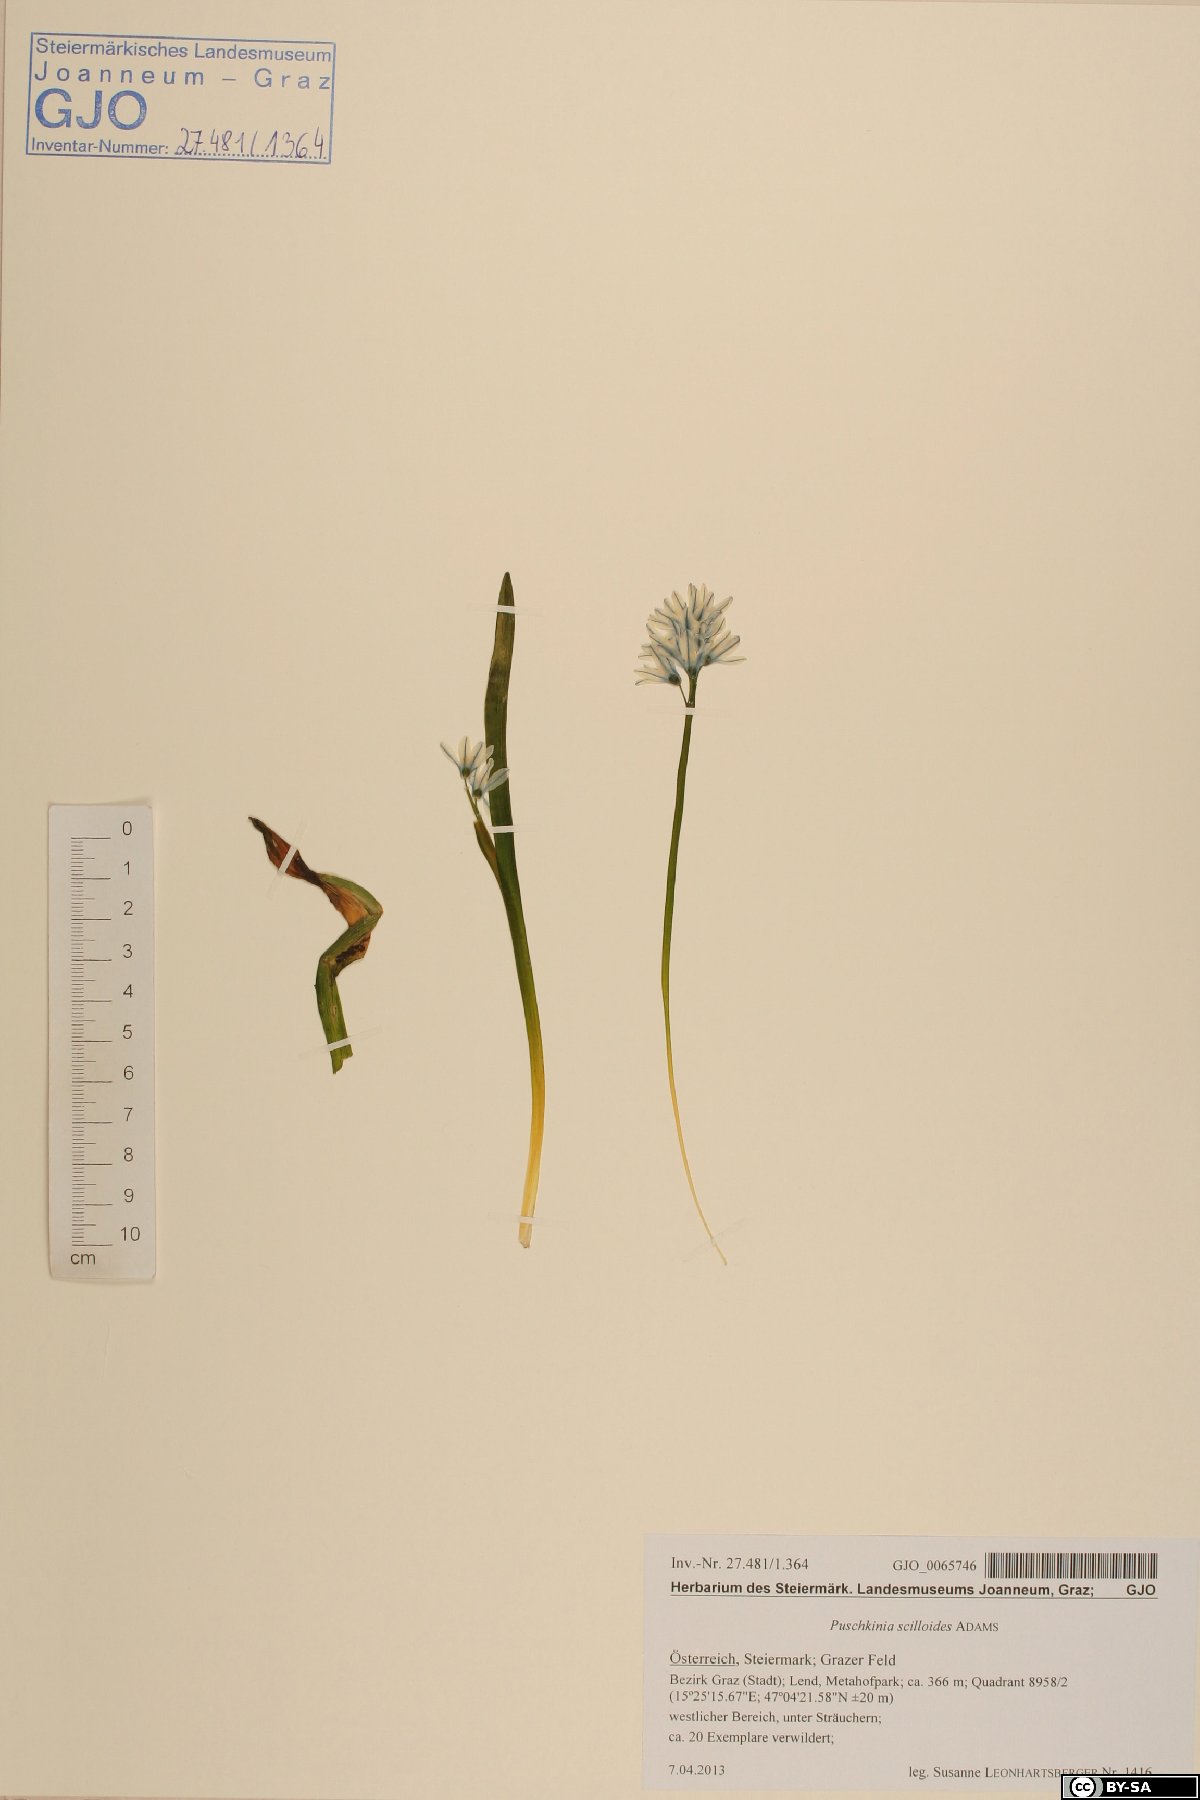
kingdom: Plantae
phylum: Tracheophyta
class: Liliopsida
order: Asparagales
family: Asparagaceae
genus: Puschkinia
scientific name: Puschkinia scilloides
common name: Striped squill
